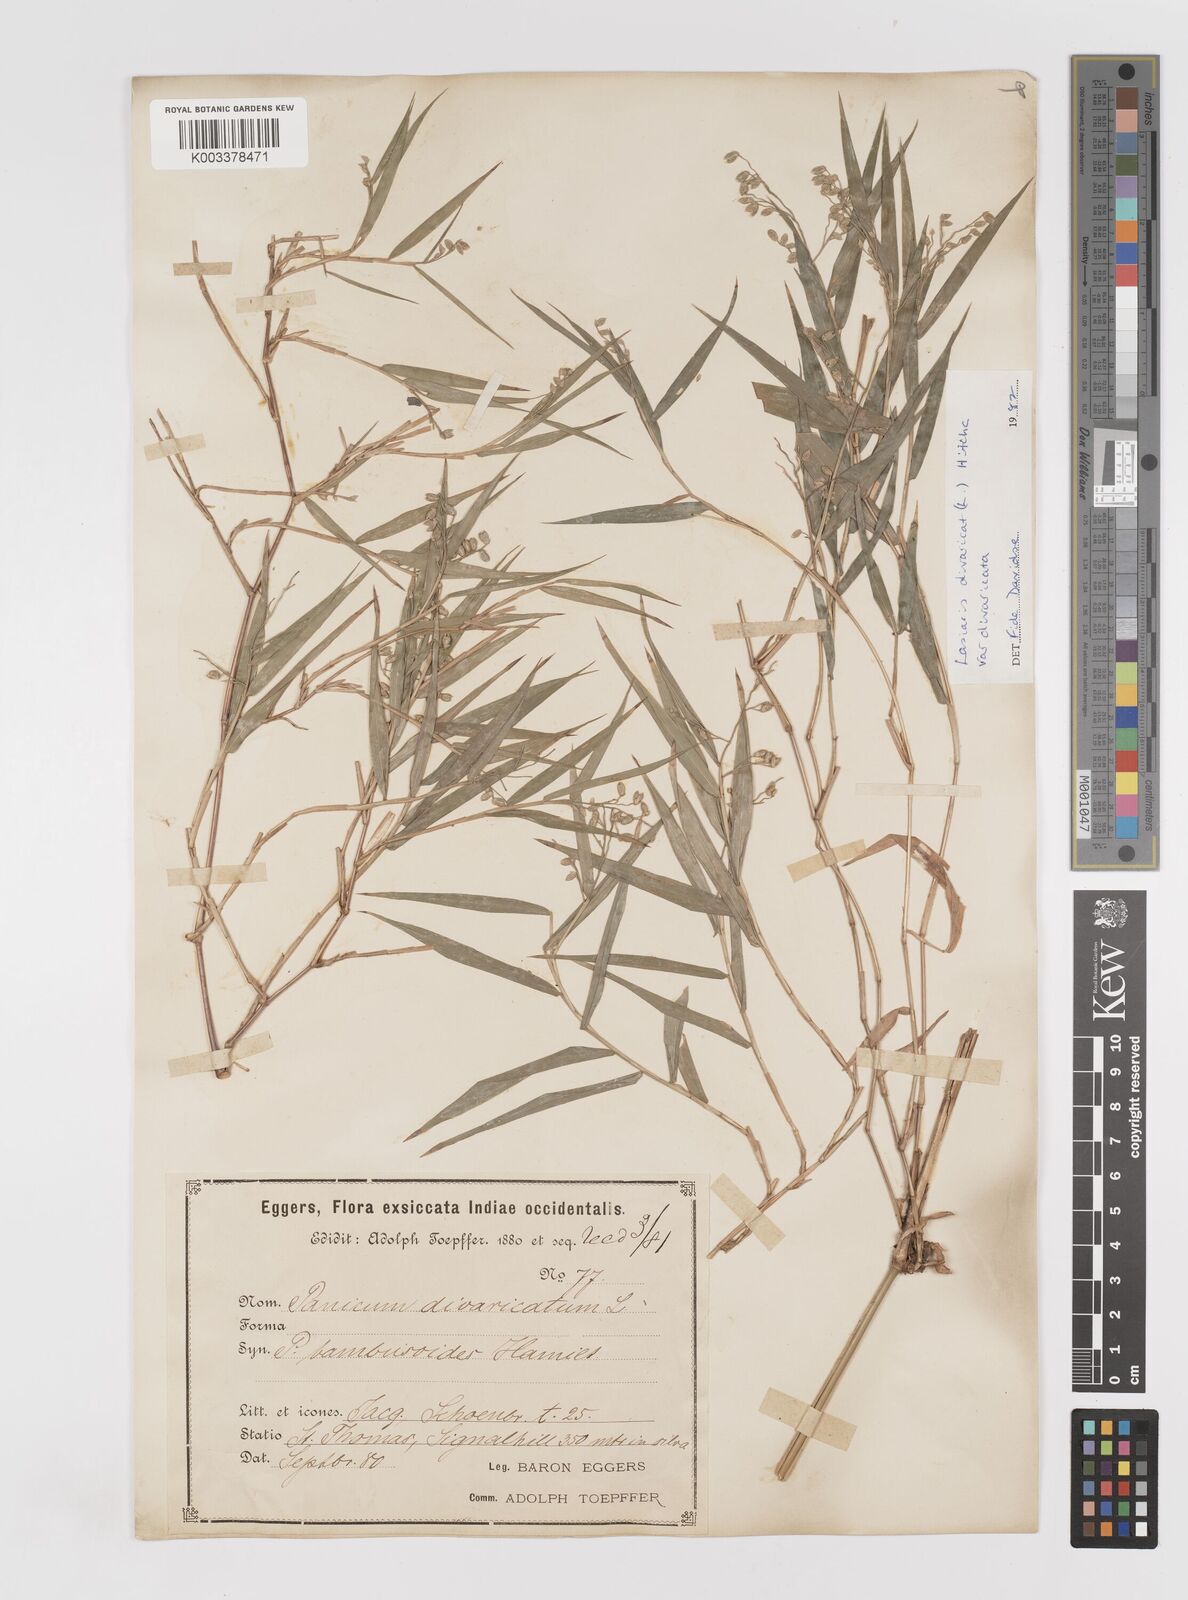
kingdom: Plantae
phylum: Tracheophyta
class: Liliopsida
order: Poales
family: Poaceae
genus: Lasiacis
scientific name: Lasiacis divaricata
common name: Smallcane
